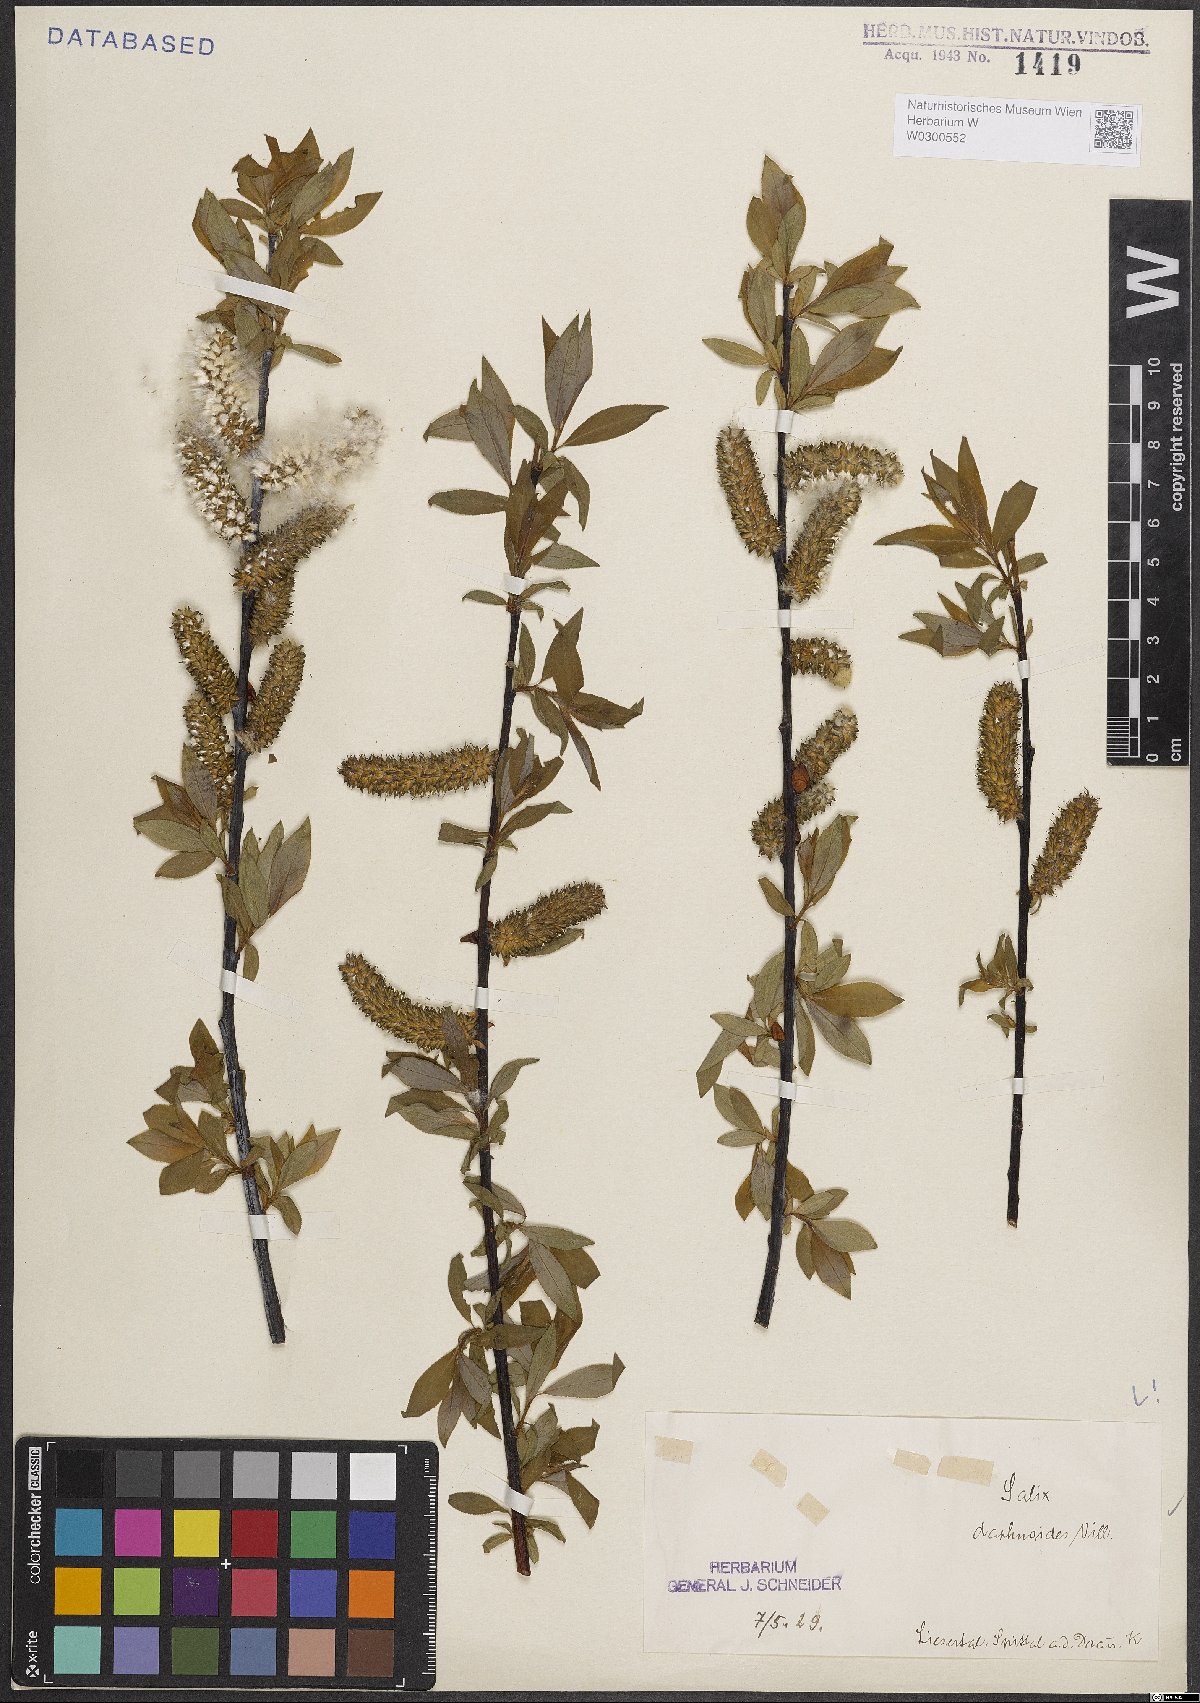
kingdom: Plantae
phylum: Tracheophyta
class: Magnoliopsida
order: Malpighiales
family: Salicaceae
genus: Salix
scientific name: Salix daphnoides
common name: European violet-willow
